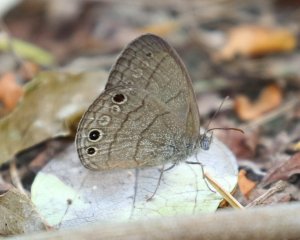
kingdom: Animalia
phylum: Arthropoda
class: Insecta
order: Lepidoptera
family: Nymphalidae
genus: Hermeuptychia
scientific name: Hermeuptychia hermybius
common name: South Texas Satyr
